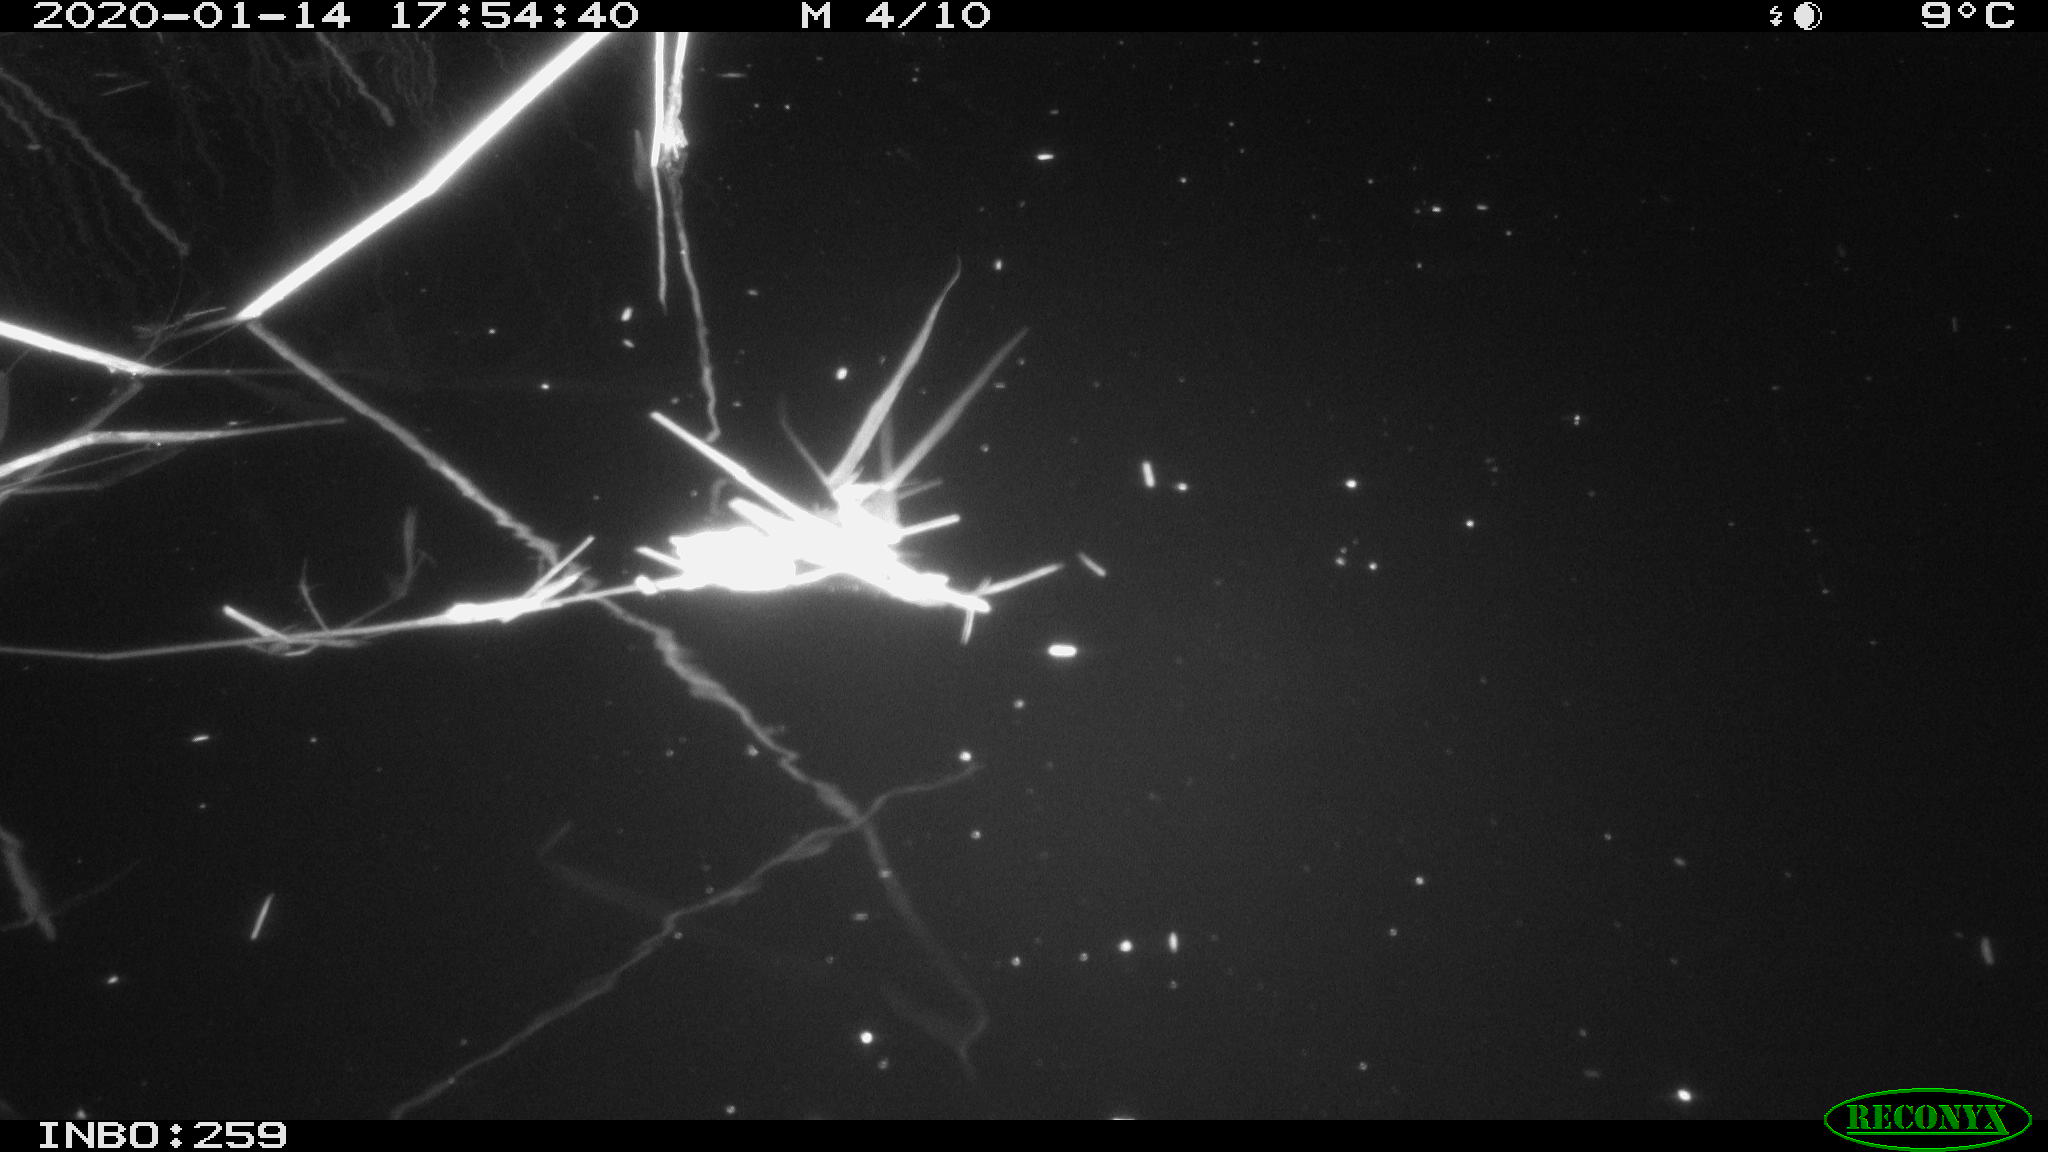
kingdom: Animalia
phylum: Chordata
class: Aves
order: Gruiformes
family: Rallidae
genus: Gallinula
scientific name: Gallinula chloropus
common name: Common moorhen
